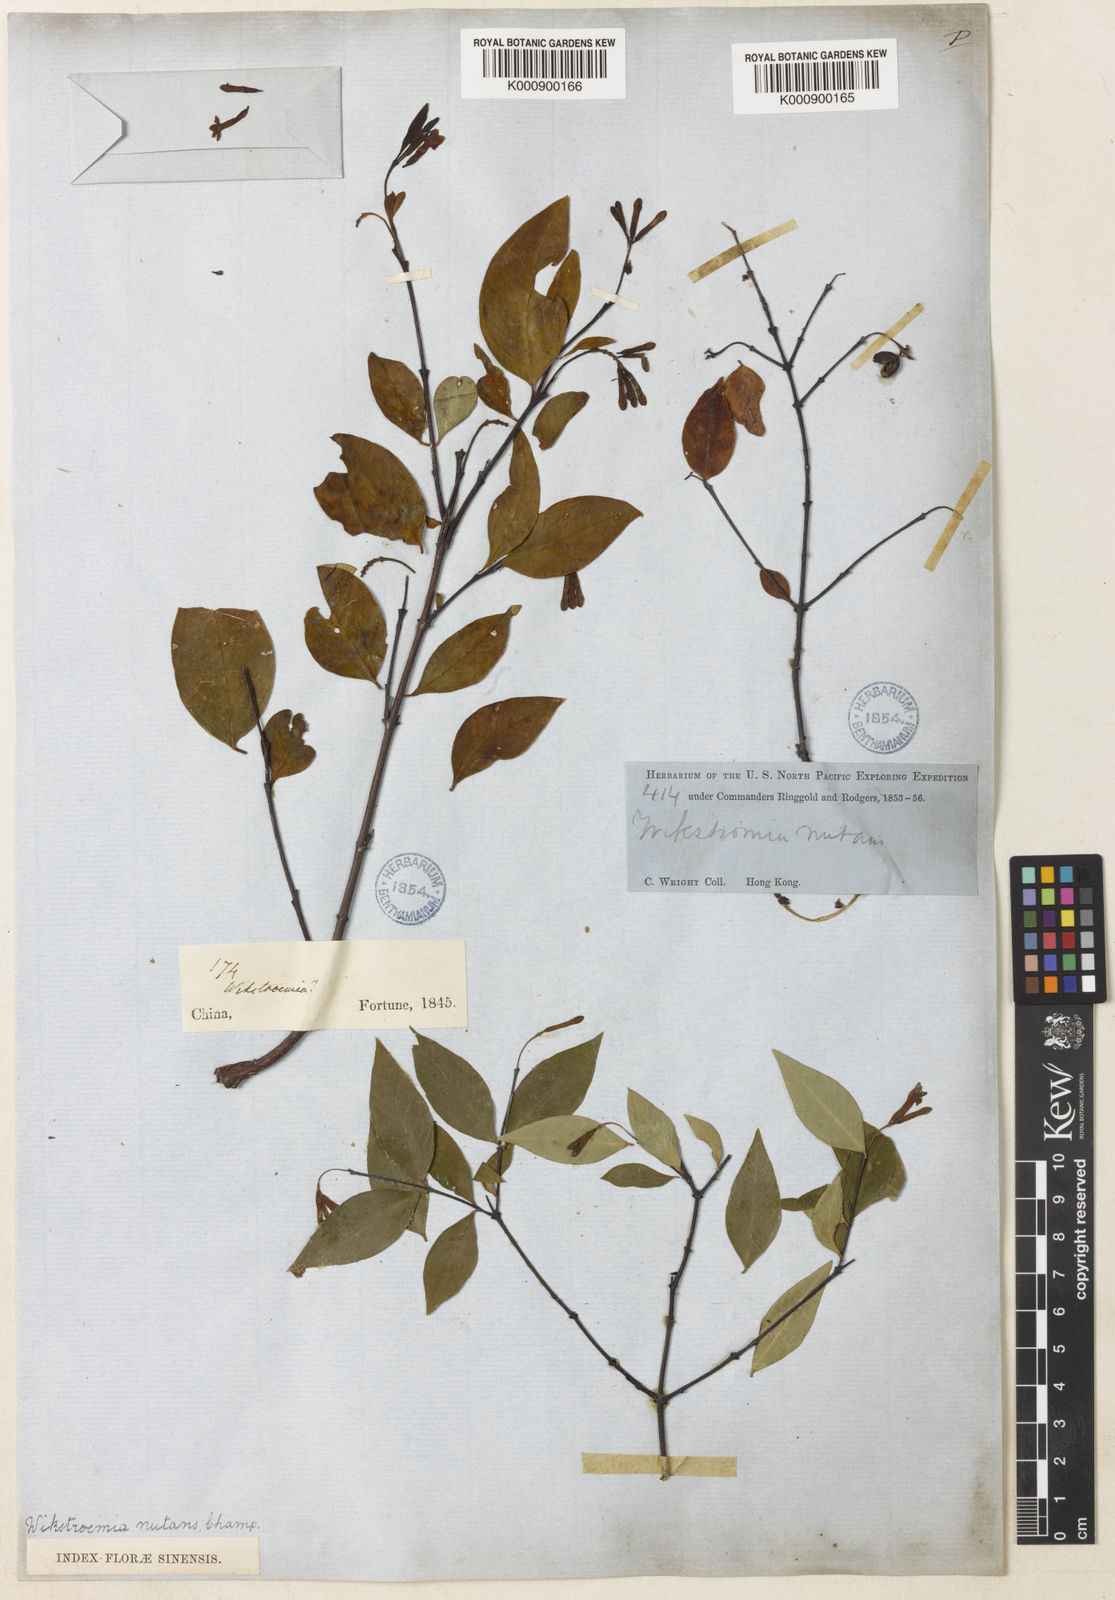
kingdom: Plantae
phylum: Tracheophyta
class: Magnoliopsida
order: Malvales
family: Thymelaeaceae
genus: Wikstroemia
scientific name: Wikstroemia nutans
